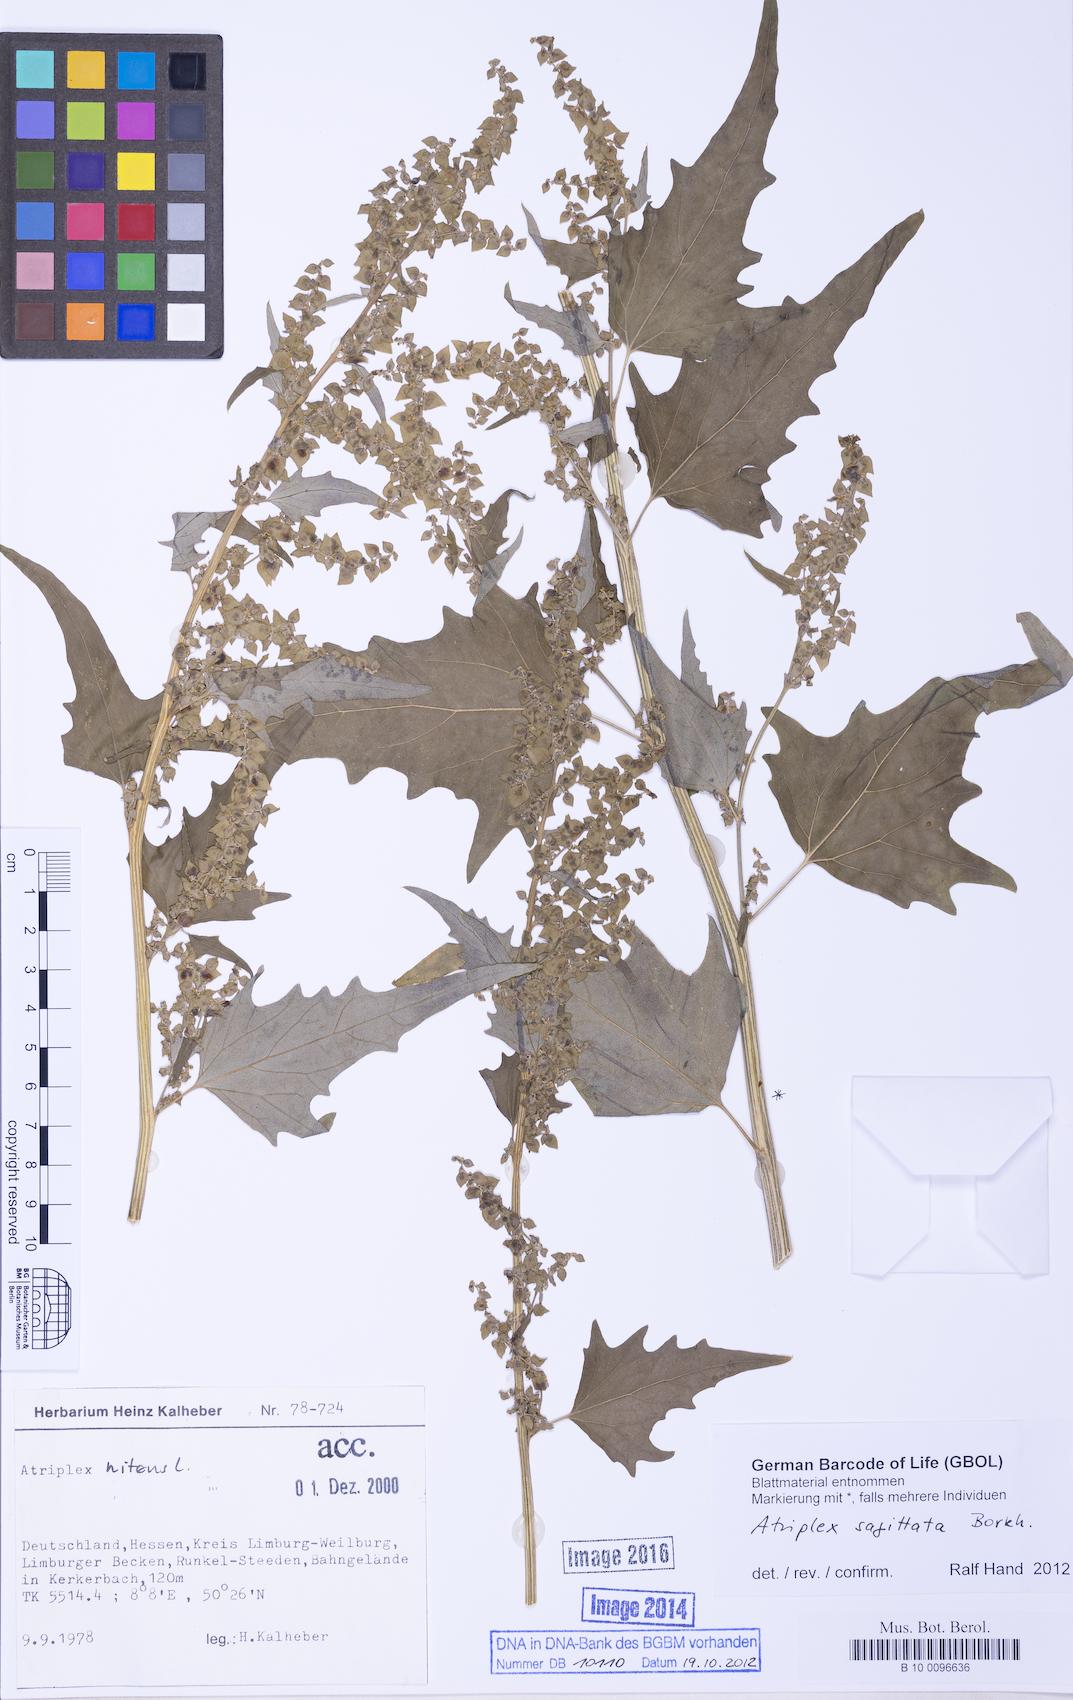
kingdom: Plantae
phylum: Tracheophyta
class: Magnoliopsida
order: Caryophyllales
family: Amaranthaceae
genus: Atriplex
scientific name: Atriplex sagittata
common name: Purple orache
